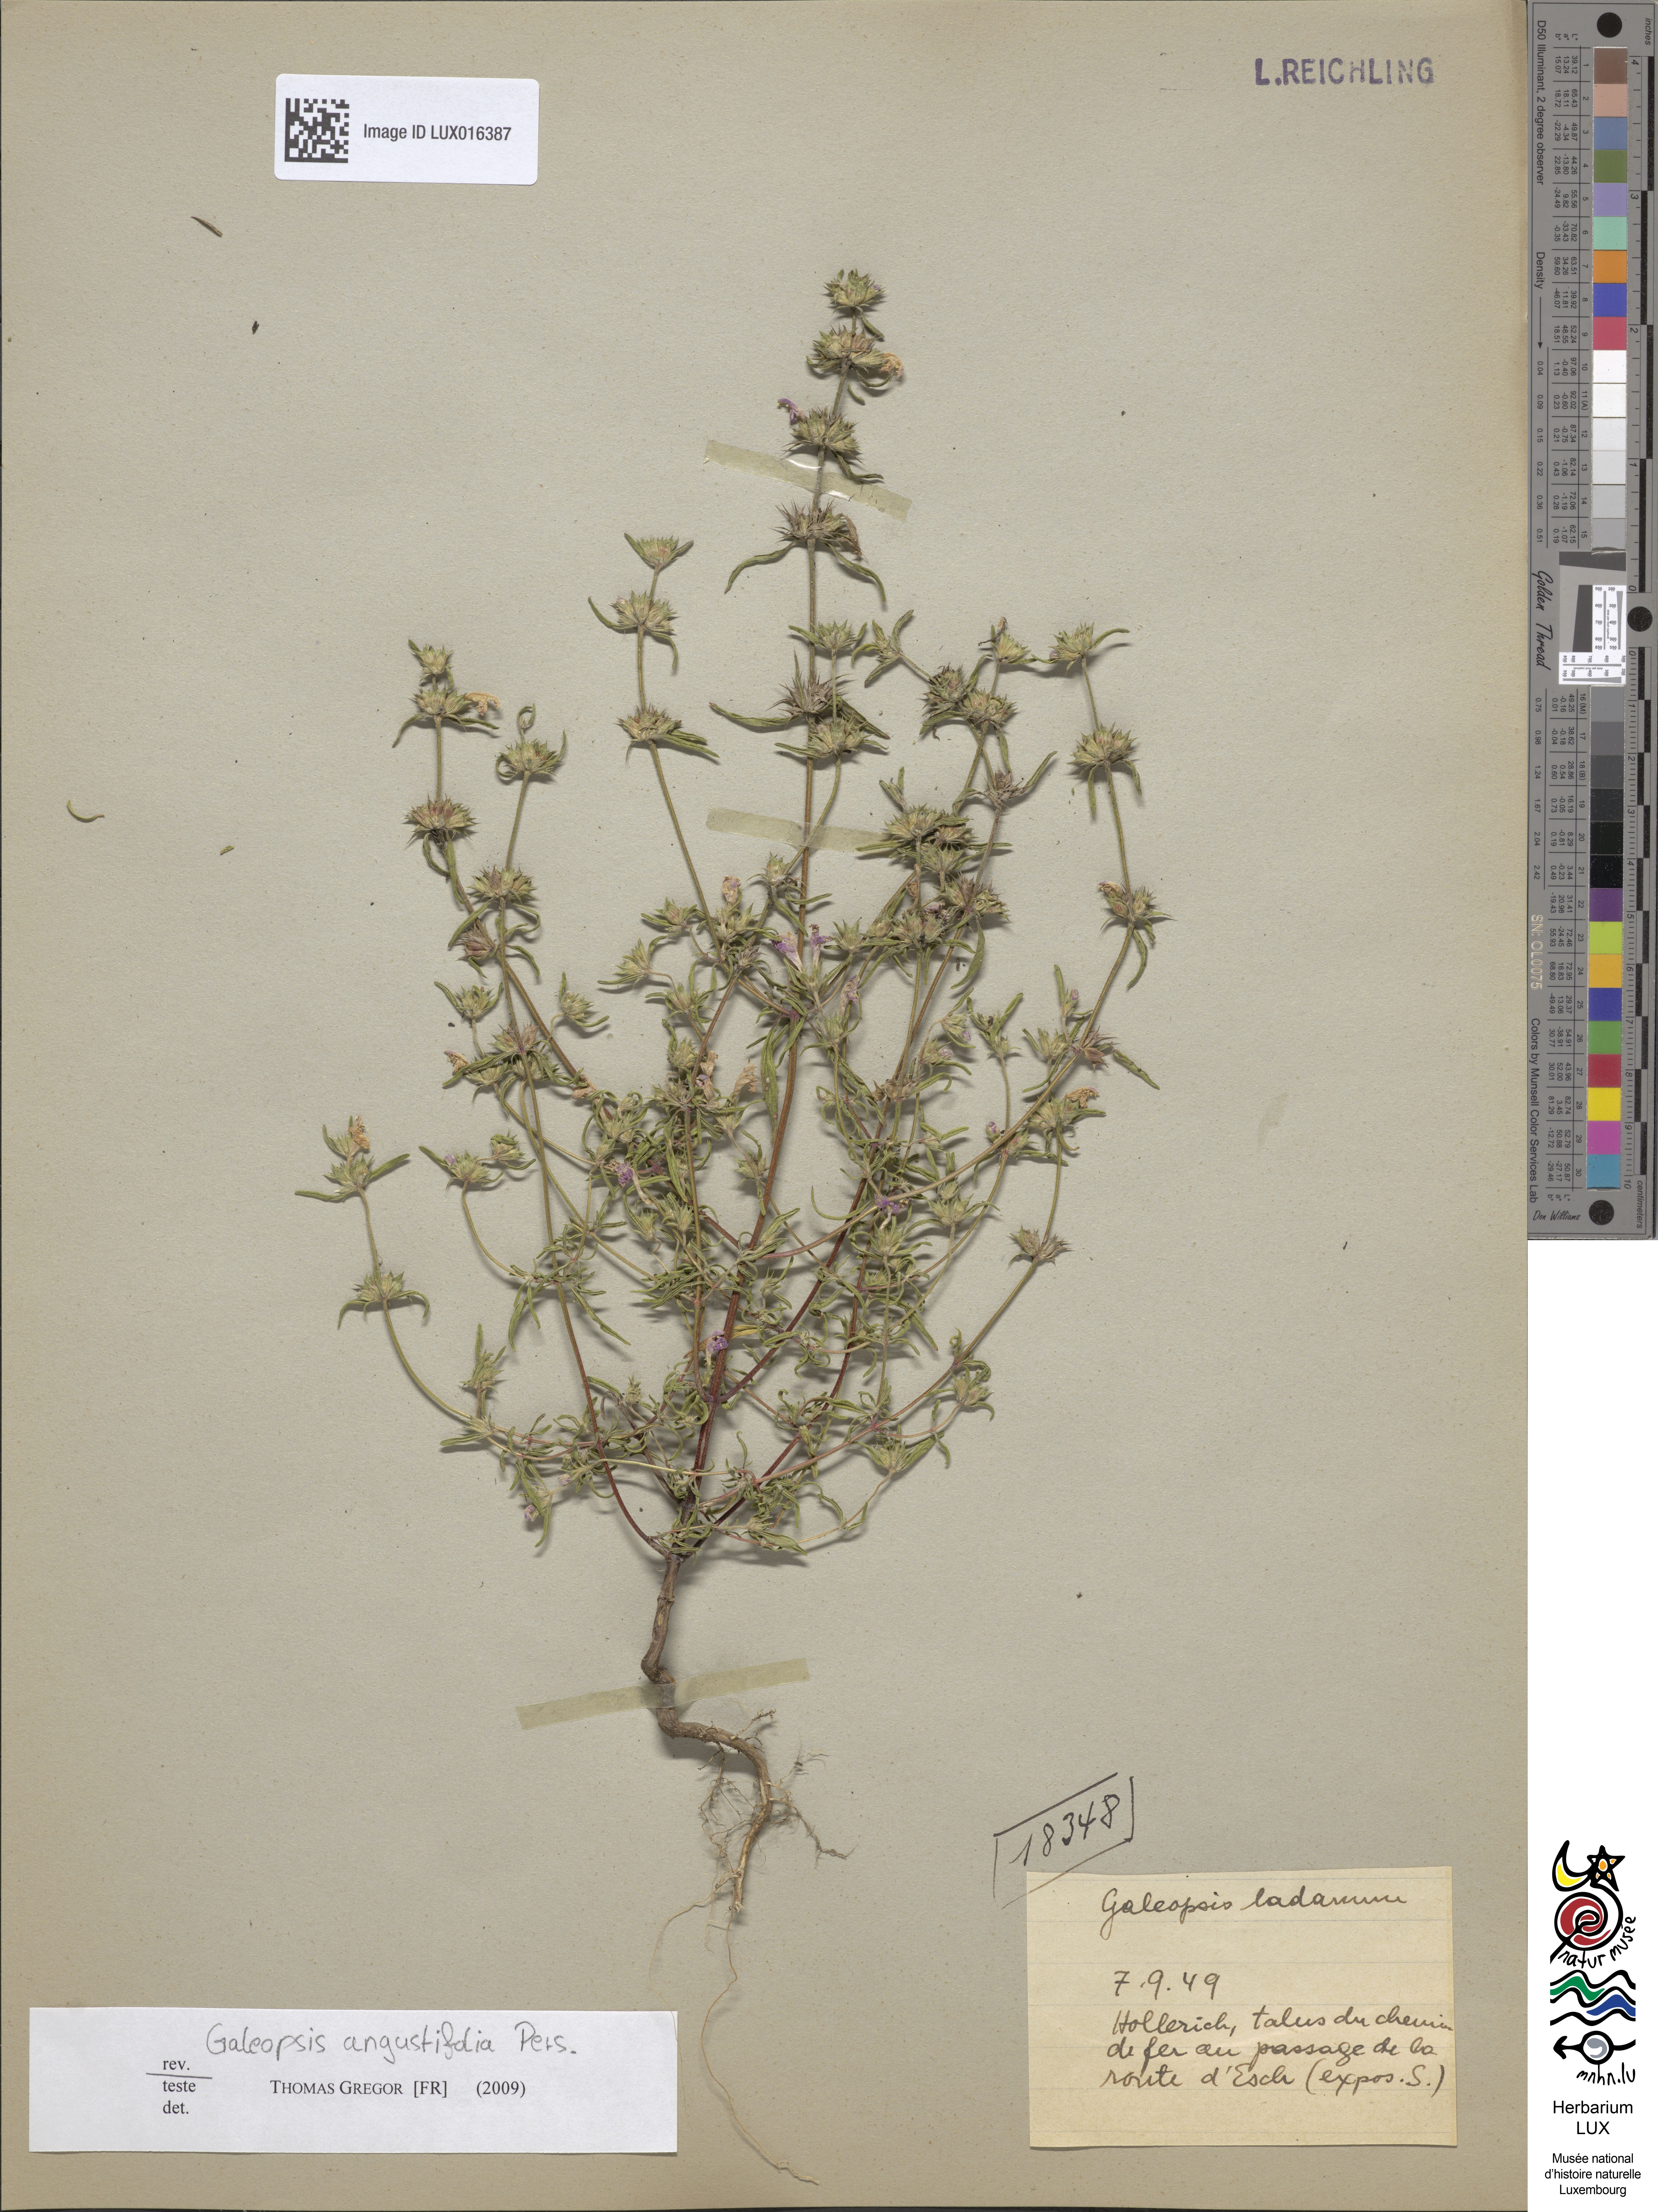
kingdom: Plantae
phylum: Tracheophyta
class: Magnoliopsida
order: Lamiales
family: Lamiaceae
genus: Galeopsis
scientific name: Galeopsis angustifolia
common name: Red hemp-nettle
